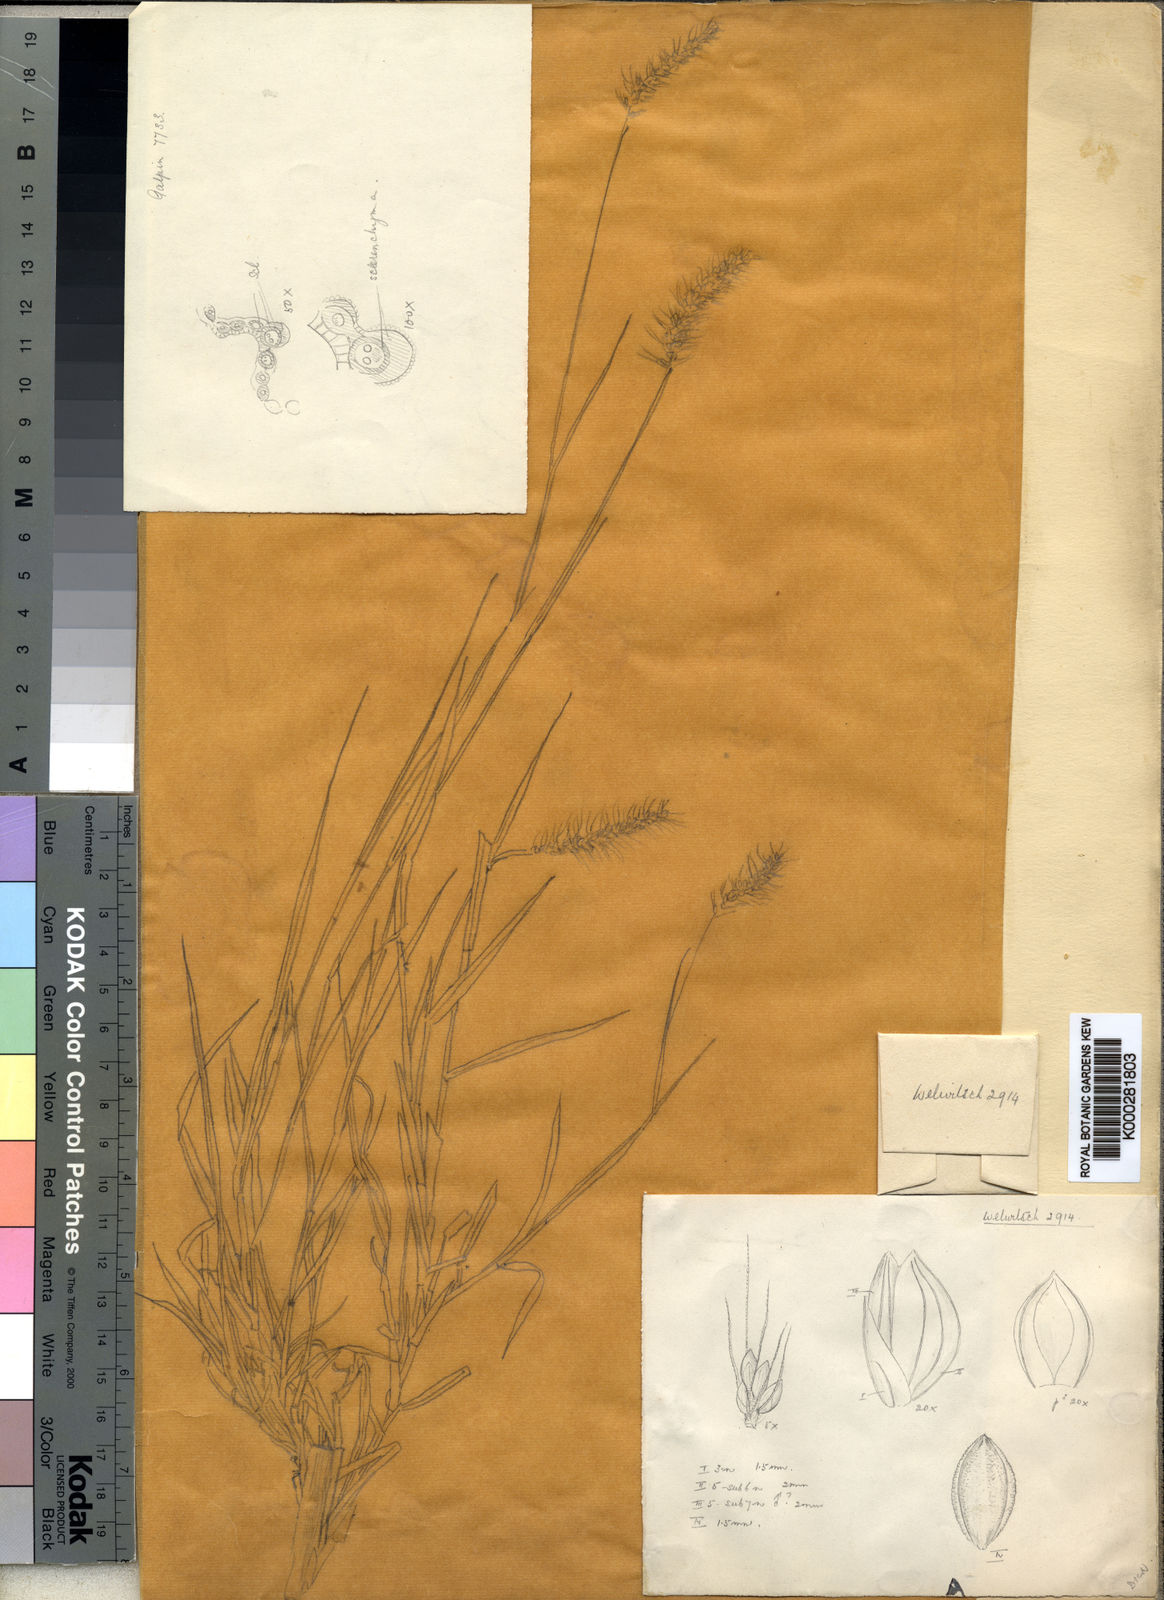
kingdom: Plantae
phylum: Tracheophyta
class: Liliopsida
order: Poales
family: Poaceae
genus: Setaria
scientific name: Setaria welwitschii
